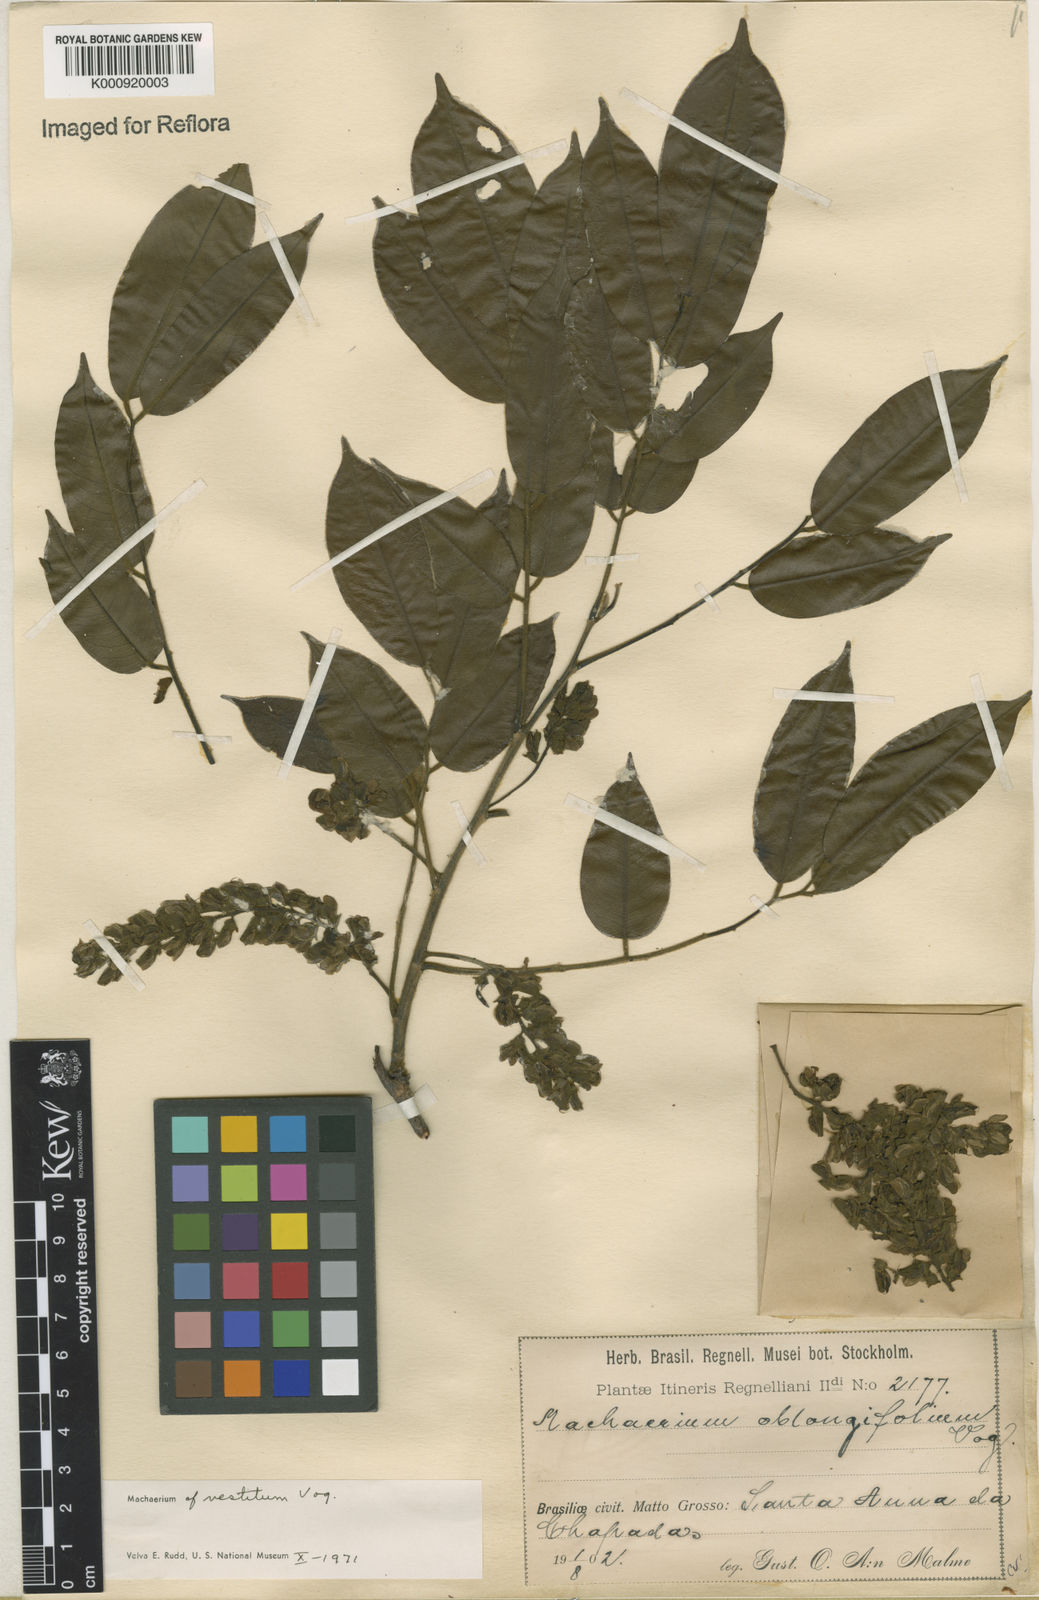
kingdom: Plantae
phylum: Tracheophyta
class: Magnoliopsida
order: Fabales
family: Fabaceae
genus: Machaerium
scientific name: Machaerium brasiliense
